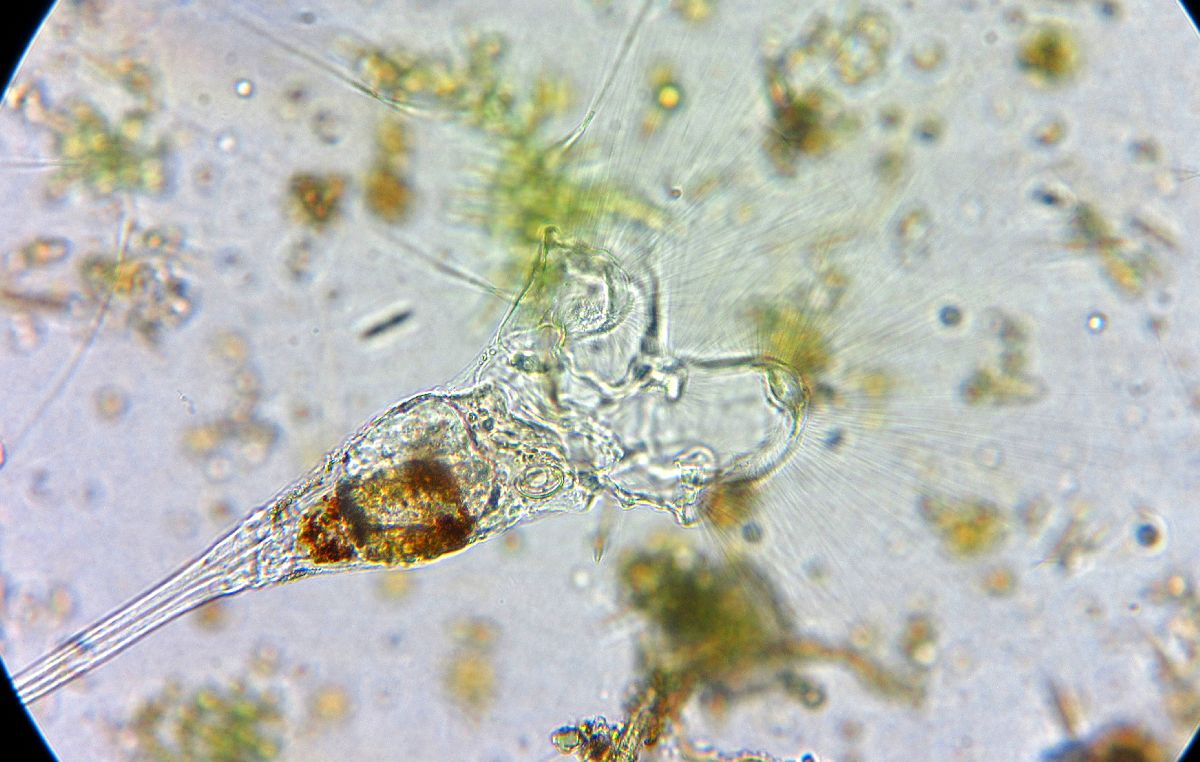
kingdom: Animalia
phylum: Rotifera
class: Eurotatoria
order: Collothecacea
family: Collothecidae
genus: Collotheca
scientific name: Collotheca ornata
